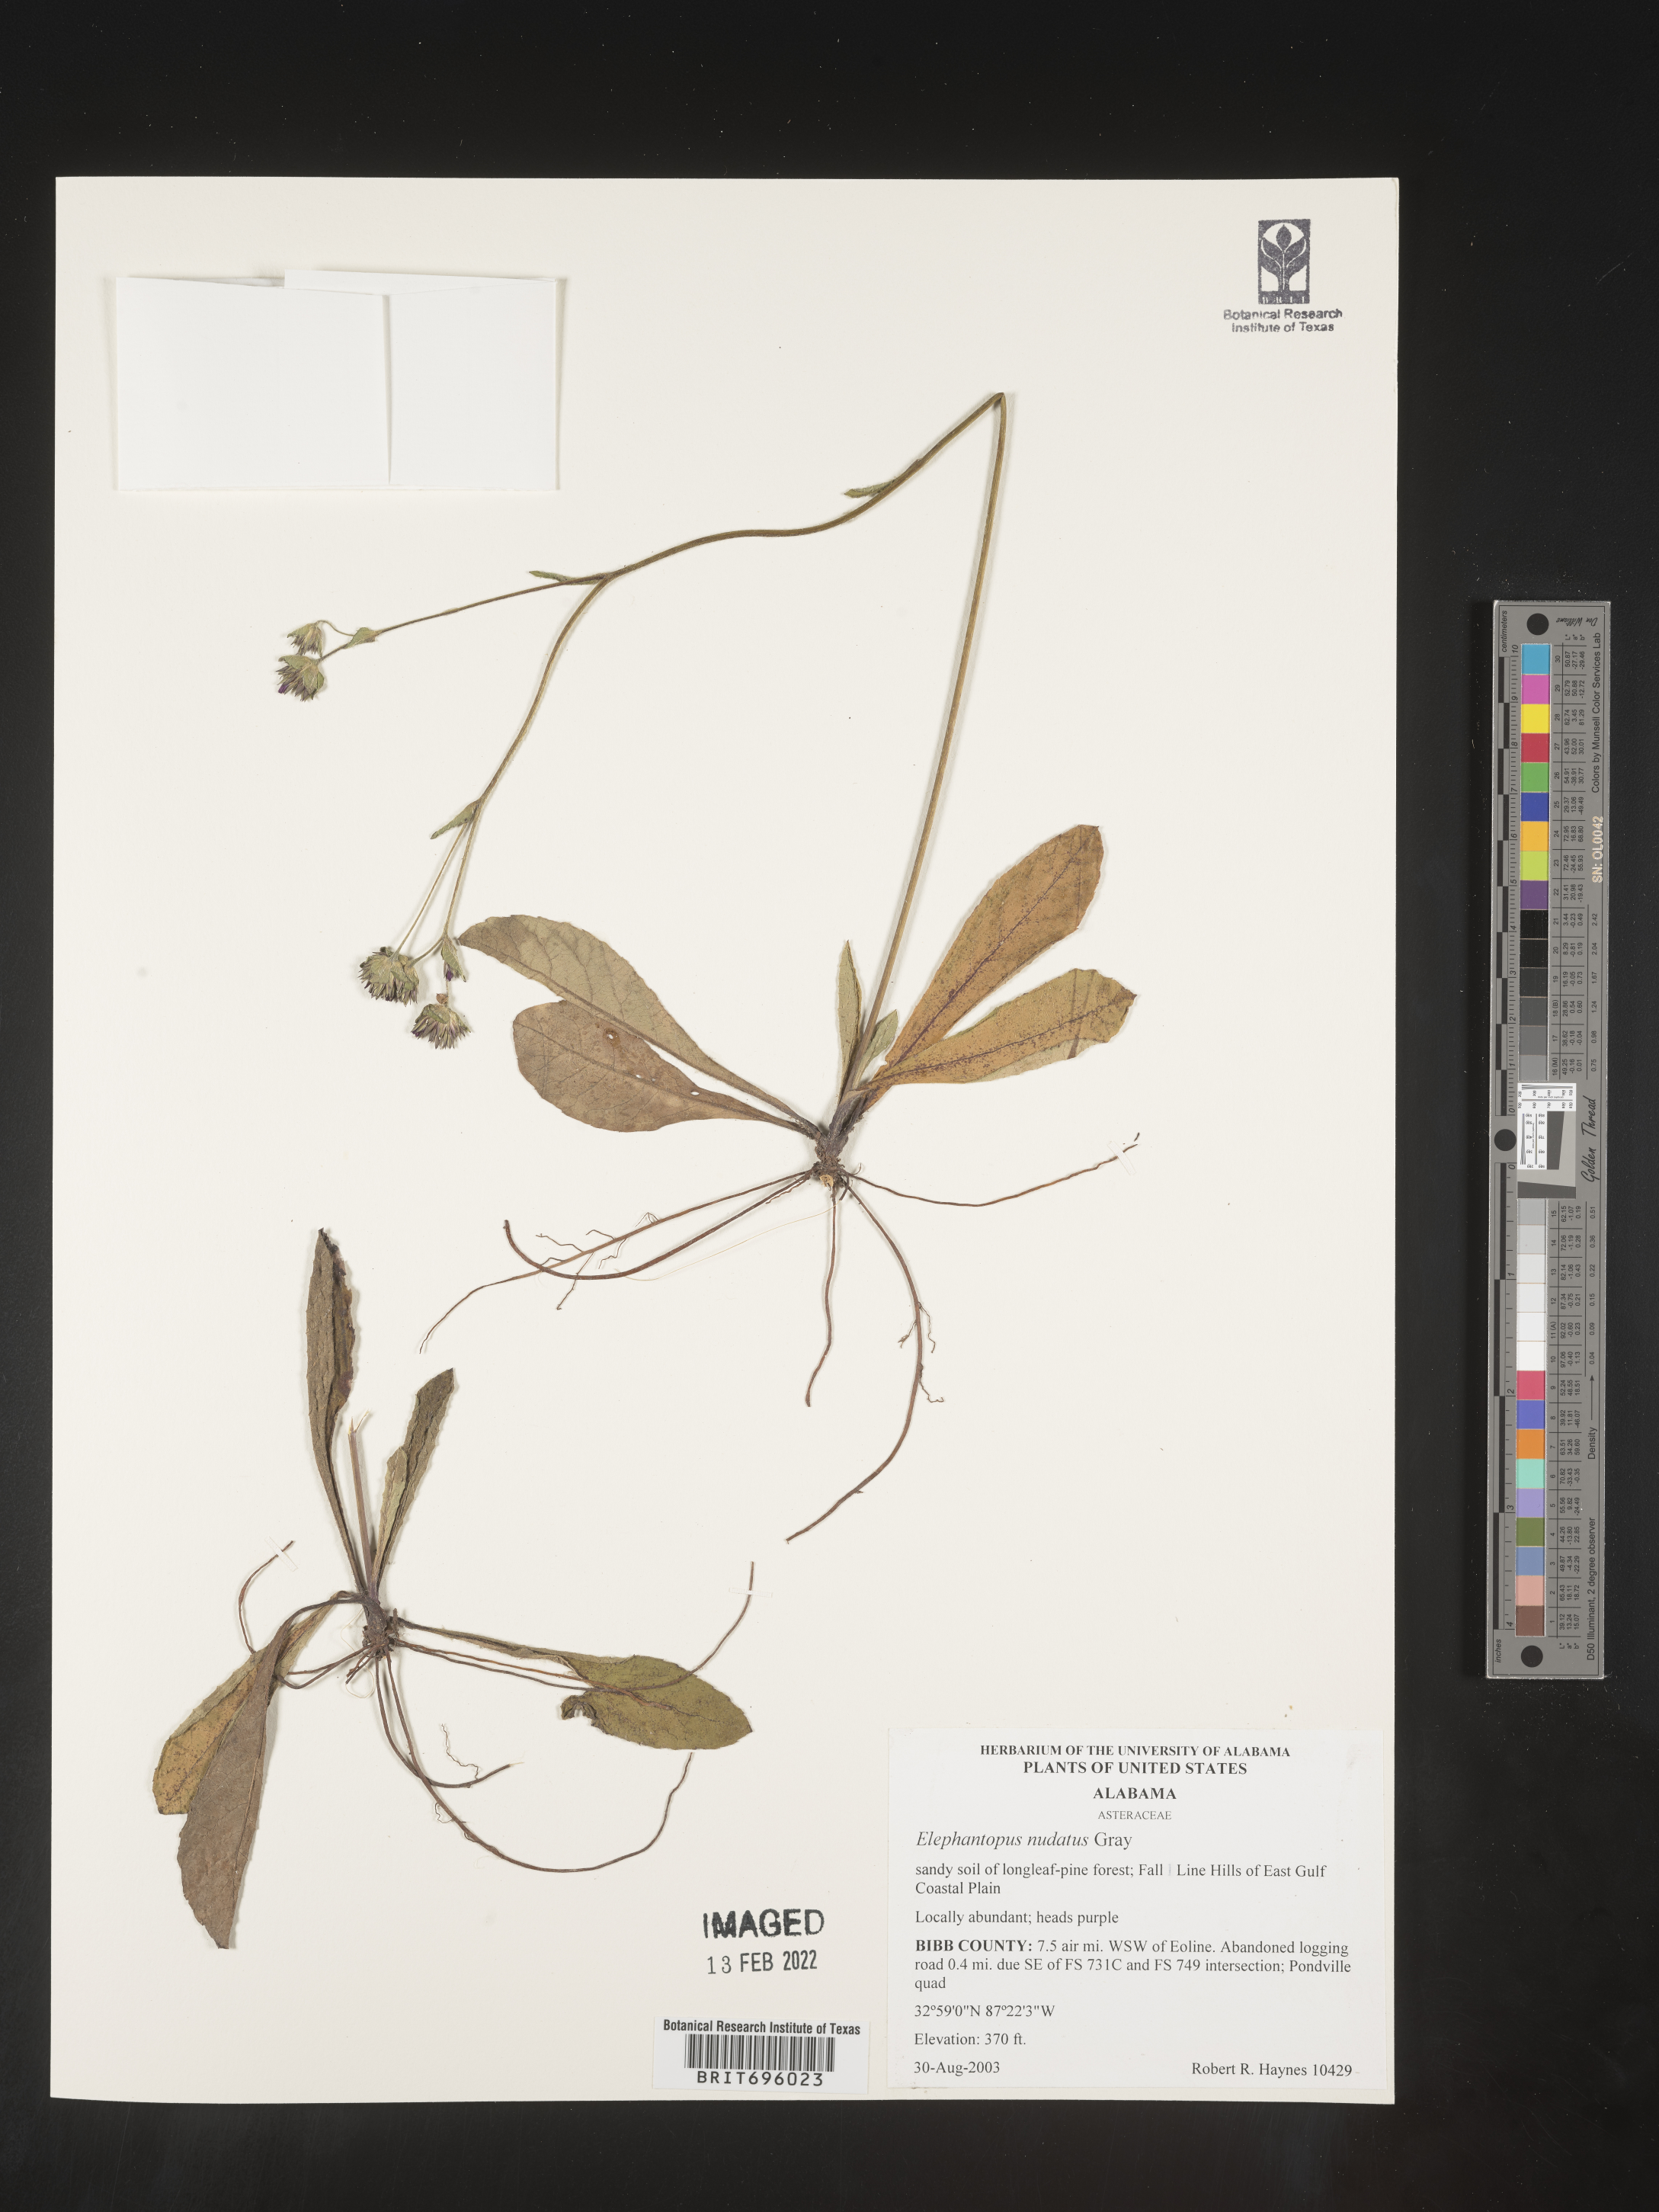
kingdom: Plantae
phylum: Tracheophyta
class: Magnoliopsida
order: Asterales
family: Asteraceae
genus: Elephantopus
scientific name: Elephantopus nudatus
